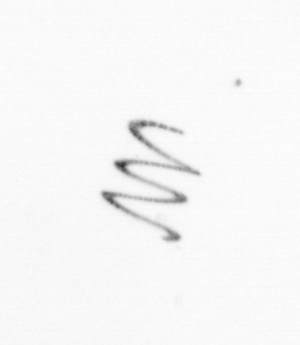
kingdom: Chromista
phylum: Ochrophyta
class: Bacillariophyceae
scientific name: Bacillariophyceae
